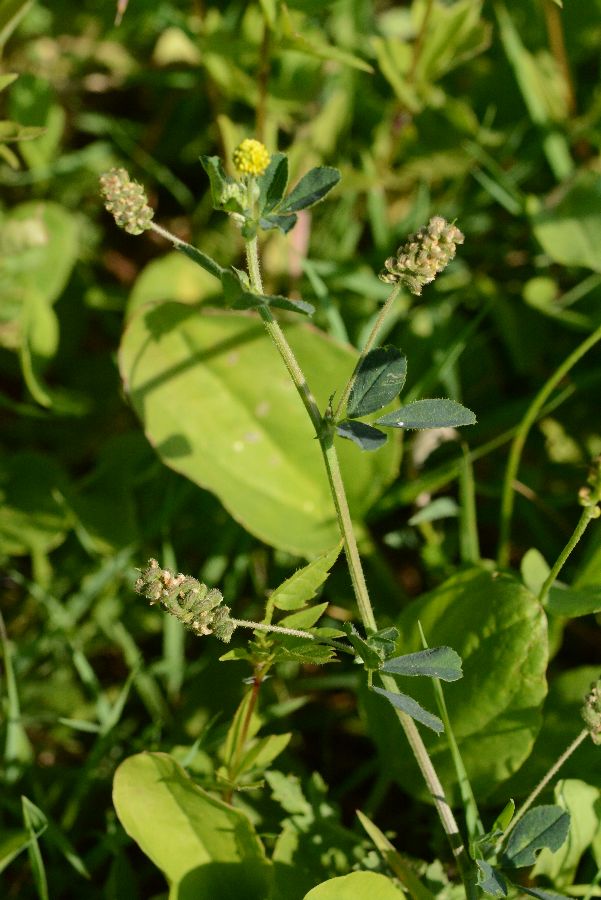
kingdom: Plantae
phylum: Tracheophyta
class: Magnoliopsida
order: Fabales
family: Fabaceae
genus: Medicago
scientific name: Medicago lupulina
